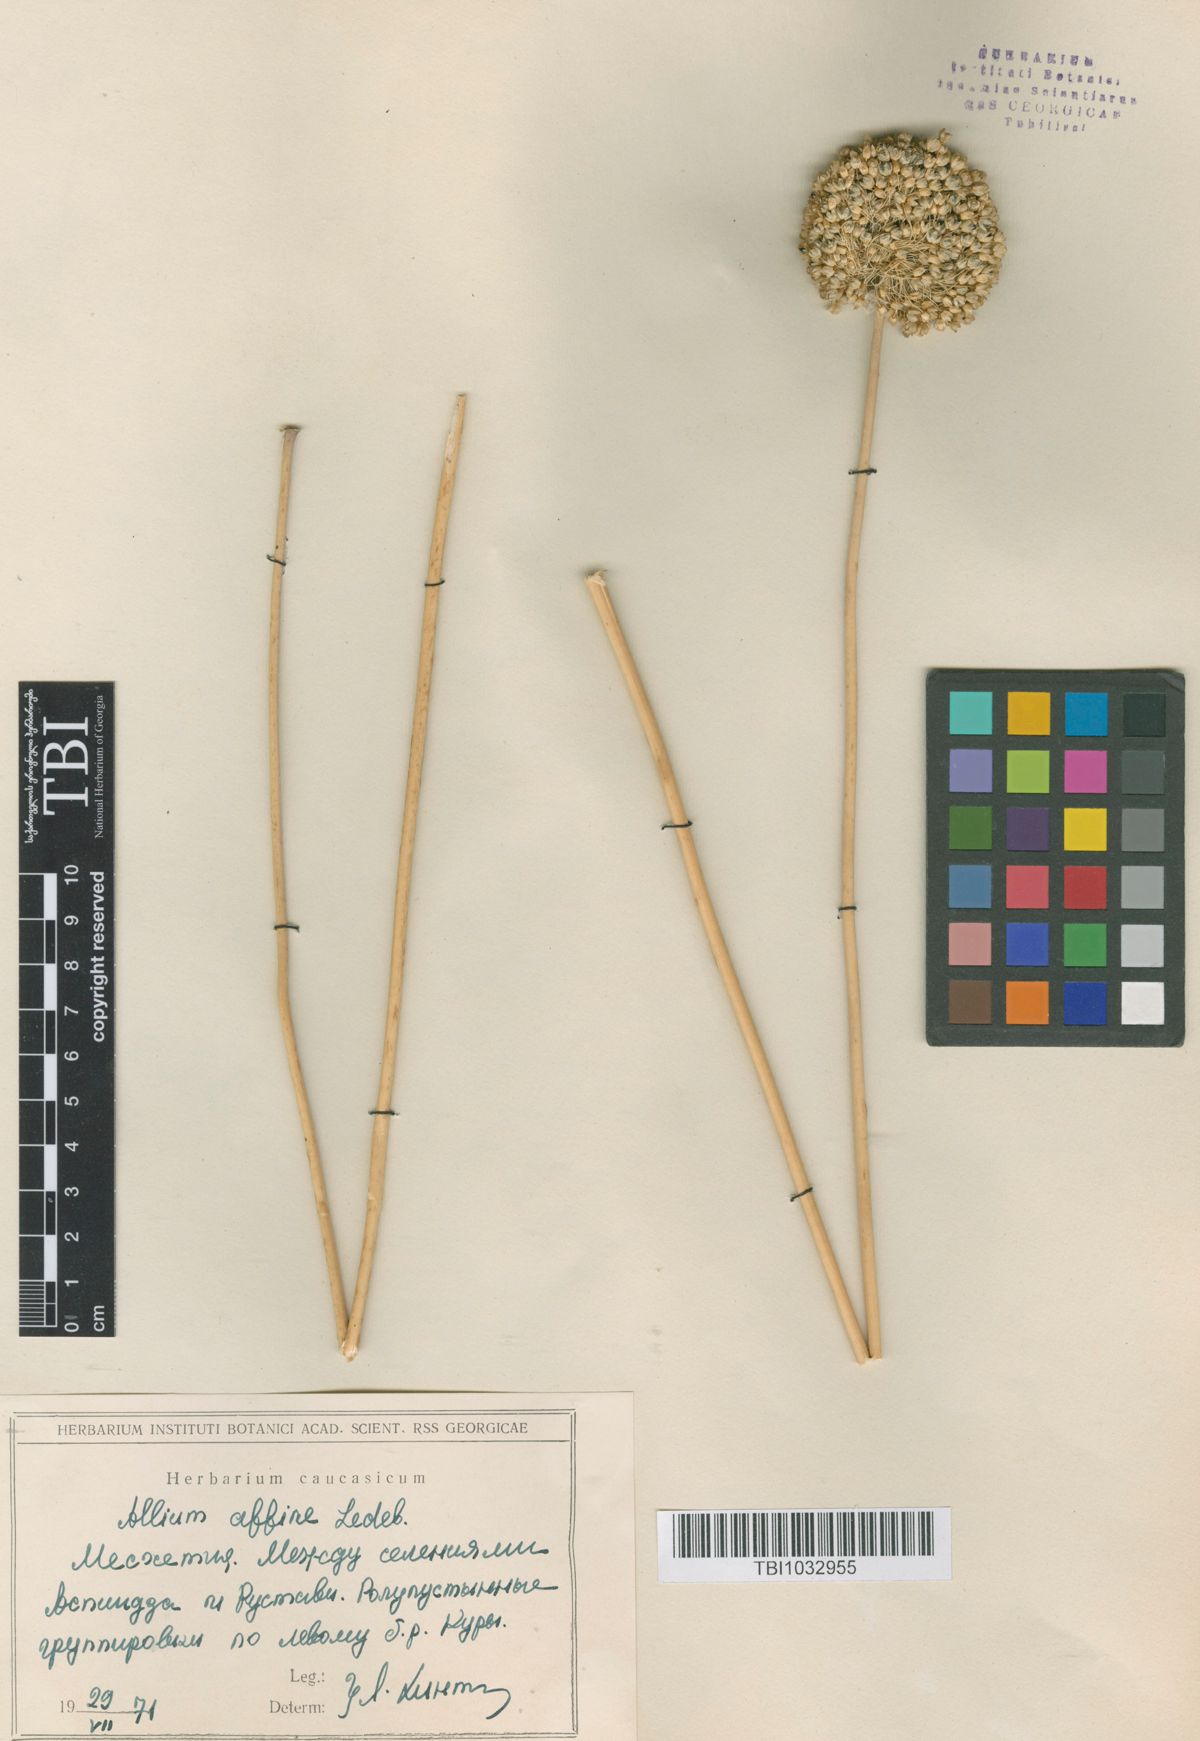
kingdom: Plantae
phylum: Tracheophyta
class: Liliopsida
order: Asparagales
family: Amaryllidaceae
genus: Allium
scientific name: Allium affine
